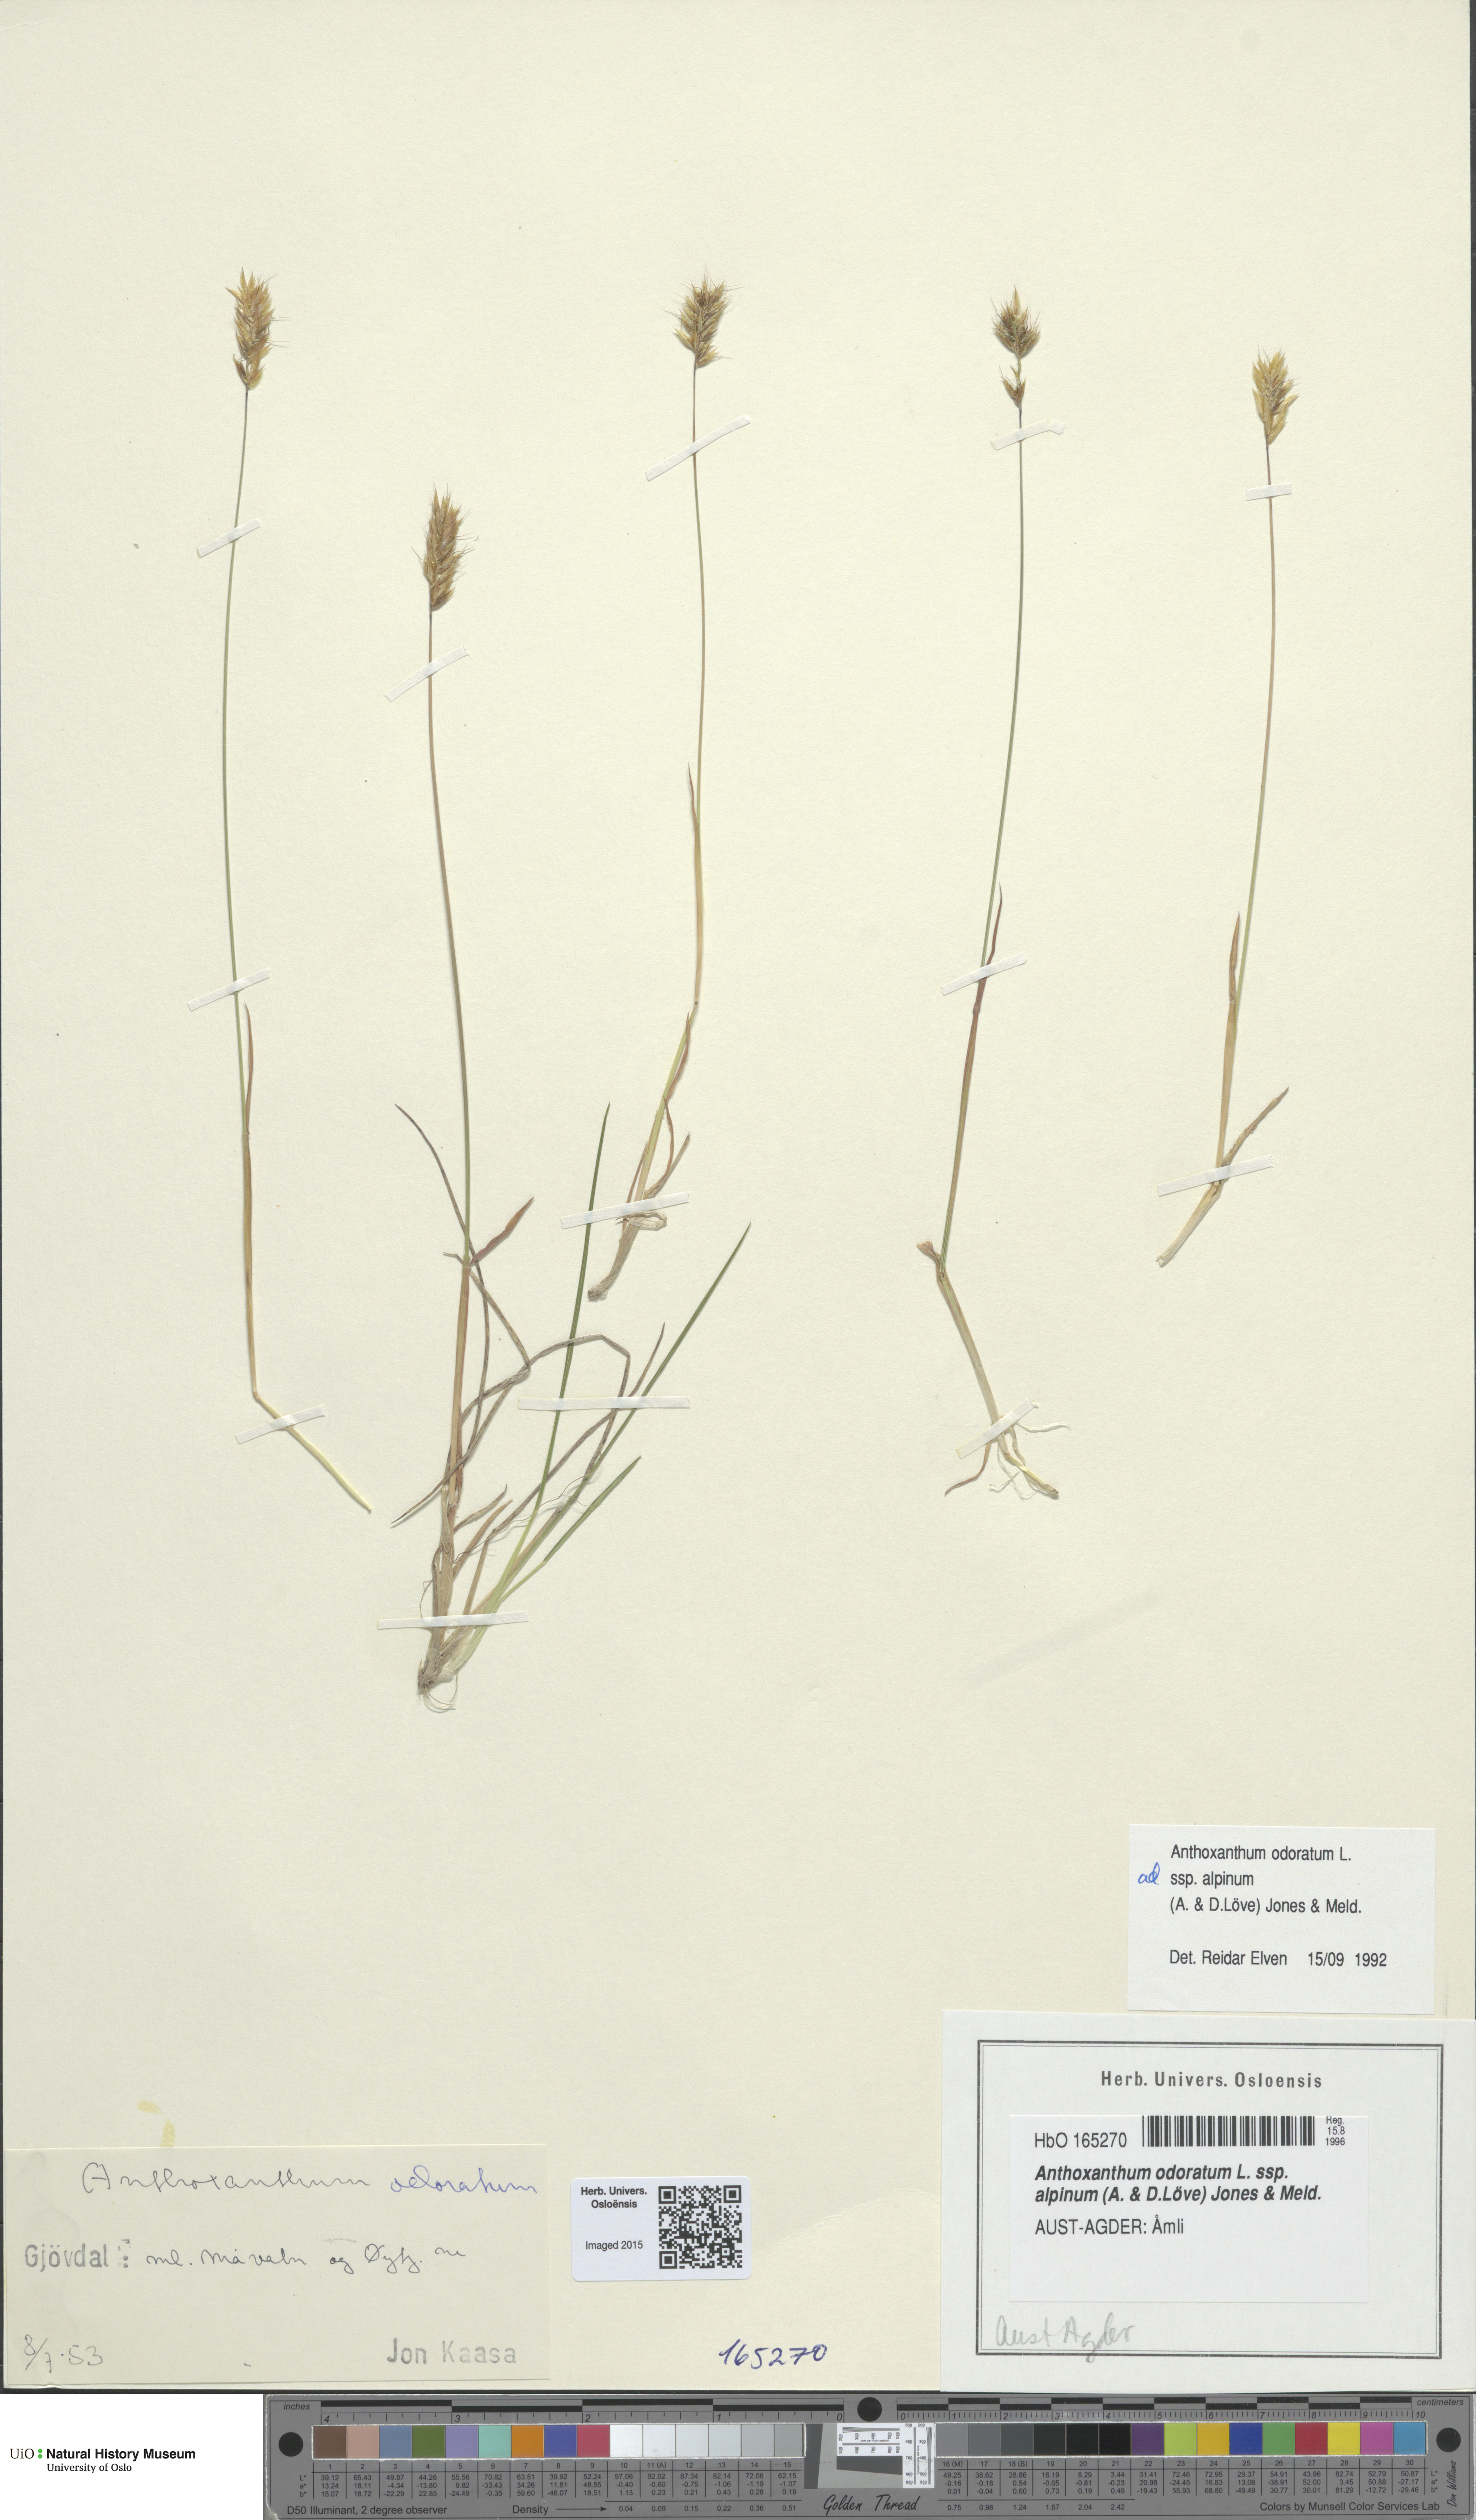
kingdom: Plantae
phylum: Tracheophyta
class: Liliopsida
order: Poales
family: Poaceae
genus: Anthoxanthum
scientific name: Anthoxanthum nipponicum
